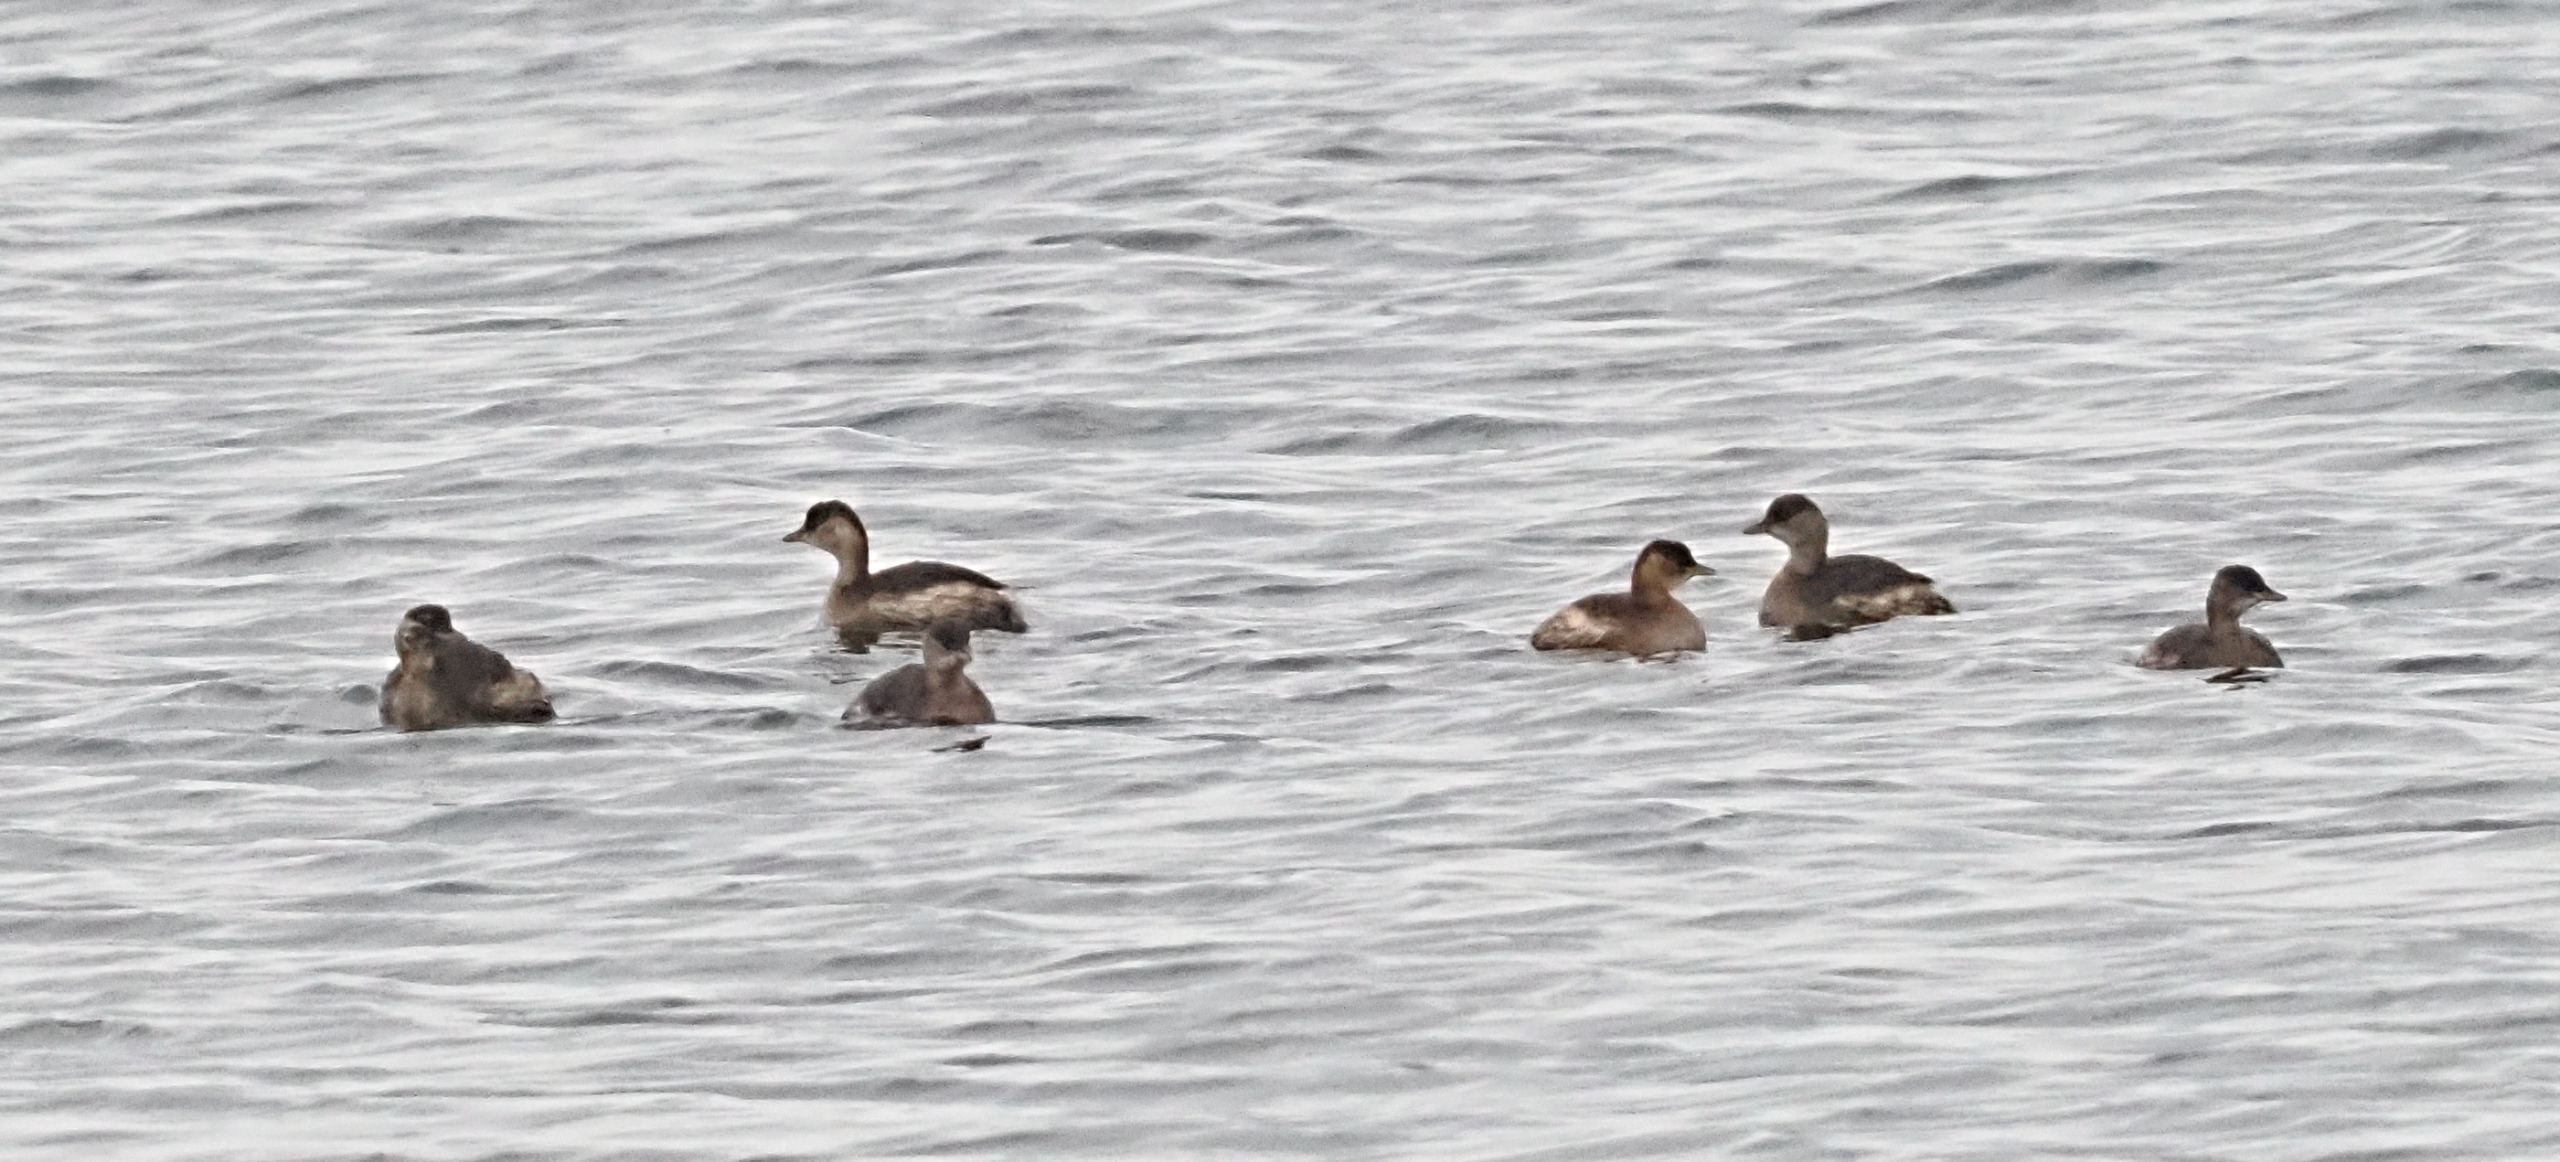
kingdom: Animalia
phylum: Chordata
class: Aves
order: Podicipediformes
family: Podicipedidae
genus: Tachybaptus
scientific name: Tachybaptus ruficollis
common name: Lille lappedykker
